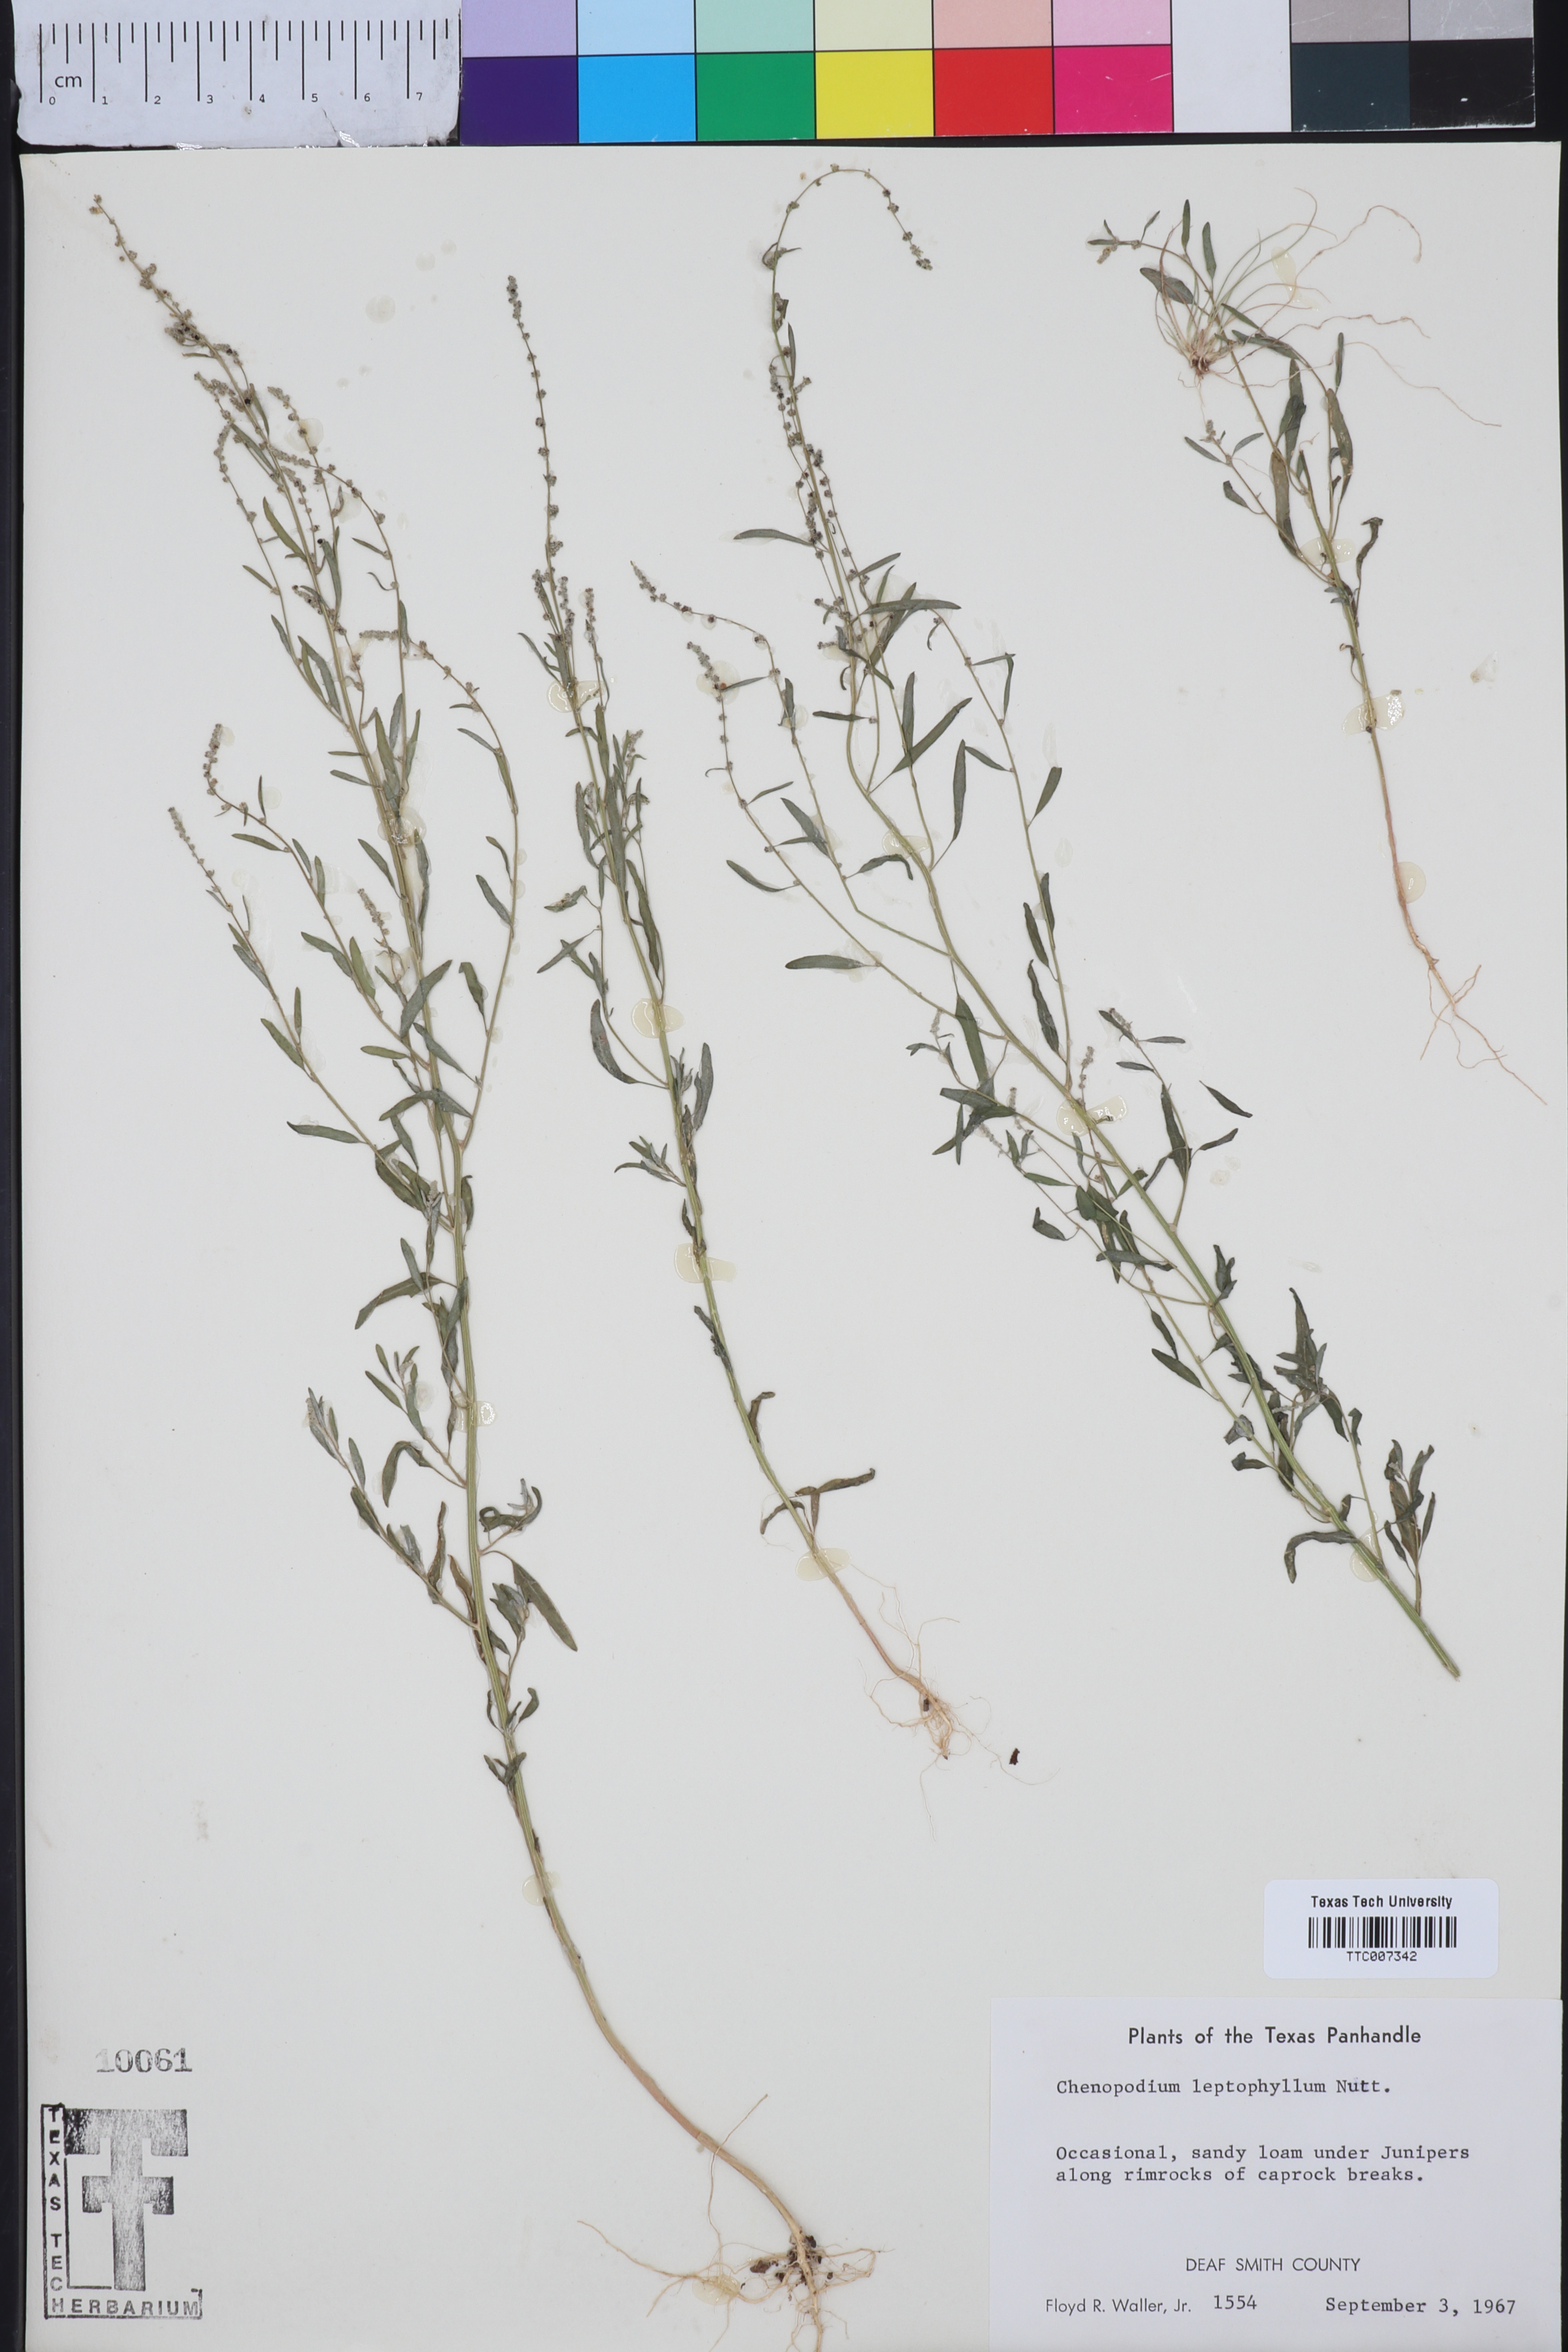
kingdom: Plantae
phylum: Tracheophyta
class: Magnoliopsida
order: Caryophyllales
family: Amaranthaceae
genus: Chenopodium
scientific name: Chenopodium leptophyllum
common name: Narrow-leaf goosefoot
